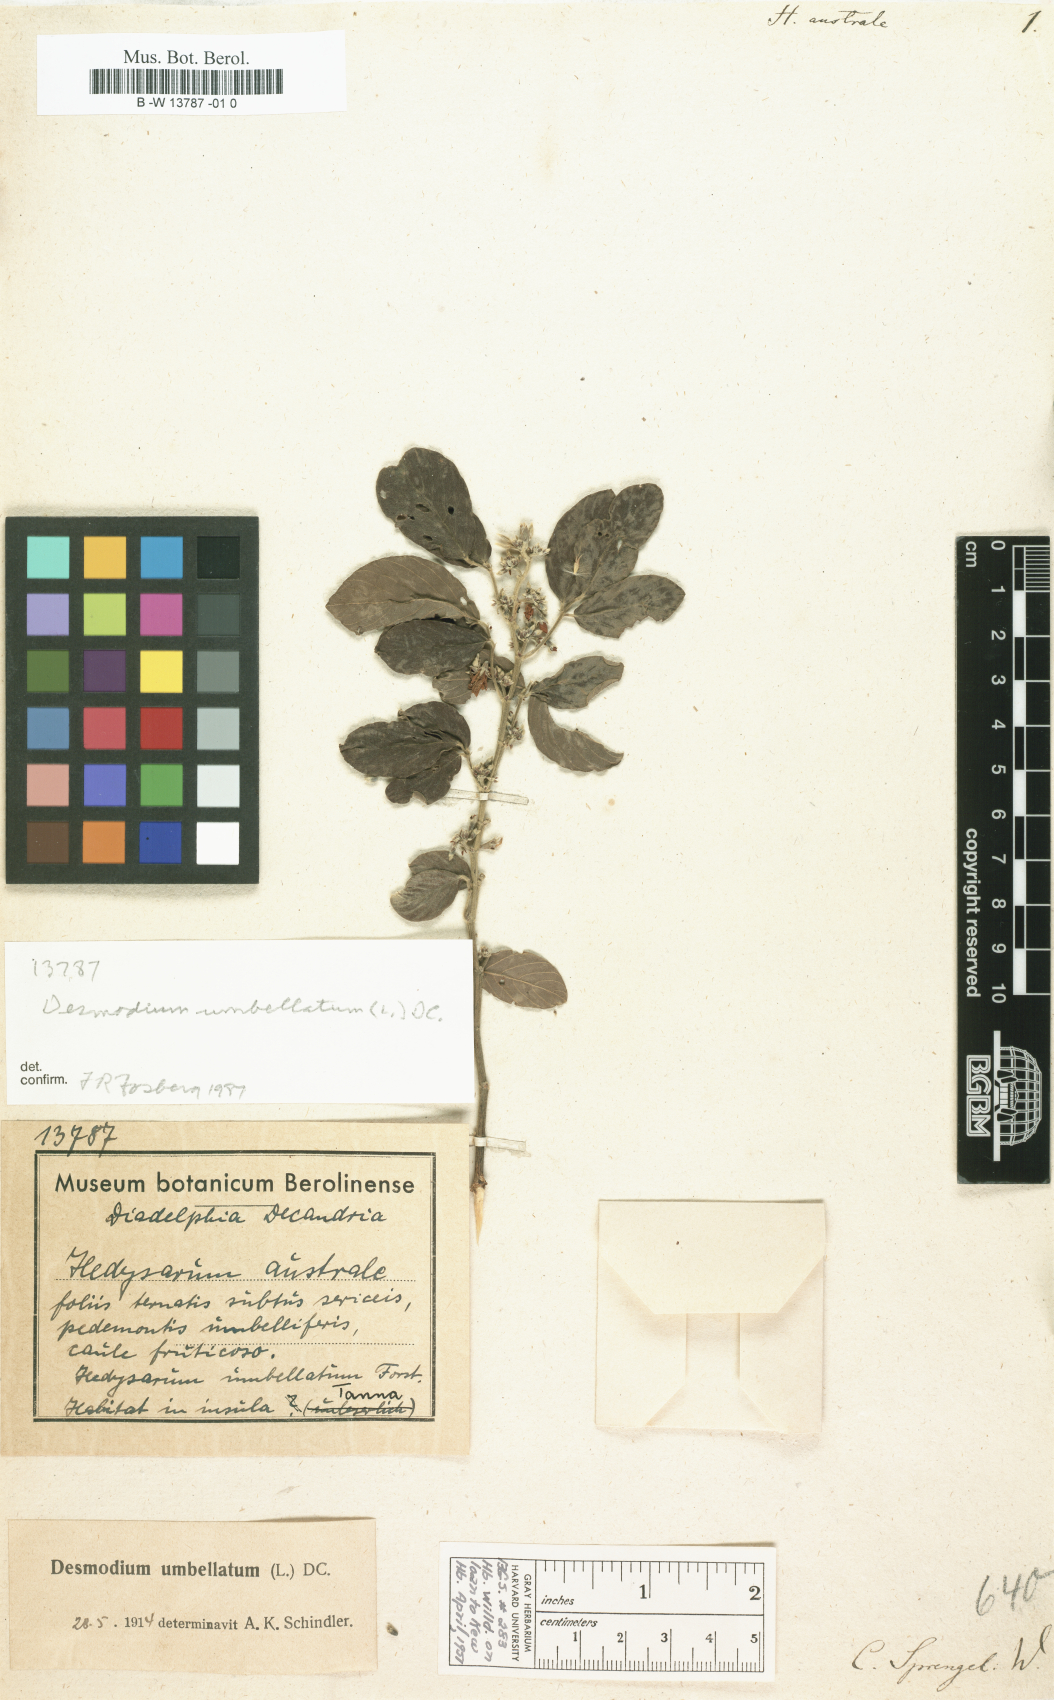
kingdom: Plantae
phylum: Tracheophyta
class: Magnoliopsida
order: Fabales
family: Fabaceae
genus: Dendrolobium
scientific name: Dendrolobium umbellatum
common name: Horsebush
